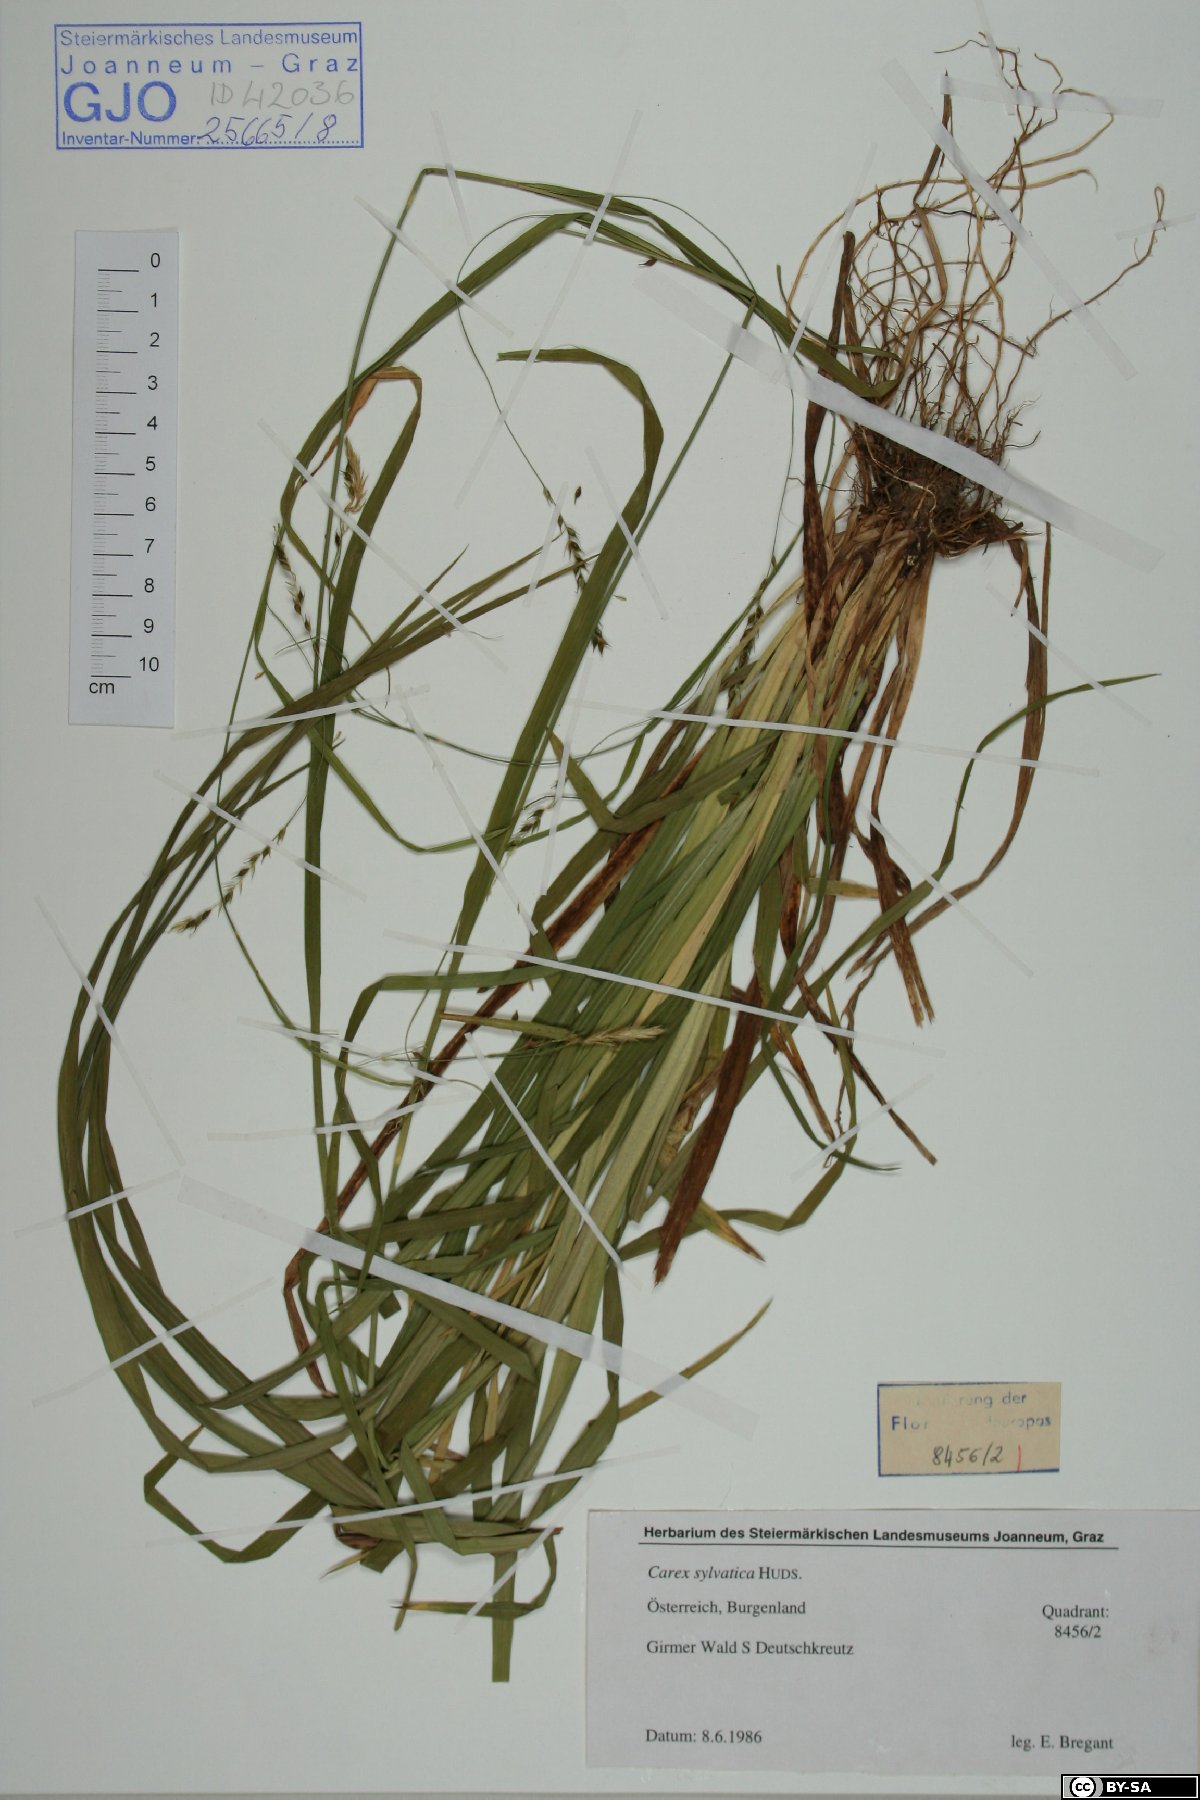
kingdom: Plantae
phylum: Tracheophyta
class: Liliopsida
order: Poales
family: Cyperaceae
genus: Carex
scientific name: Carex sylvatica
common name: Wood-sedge
